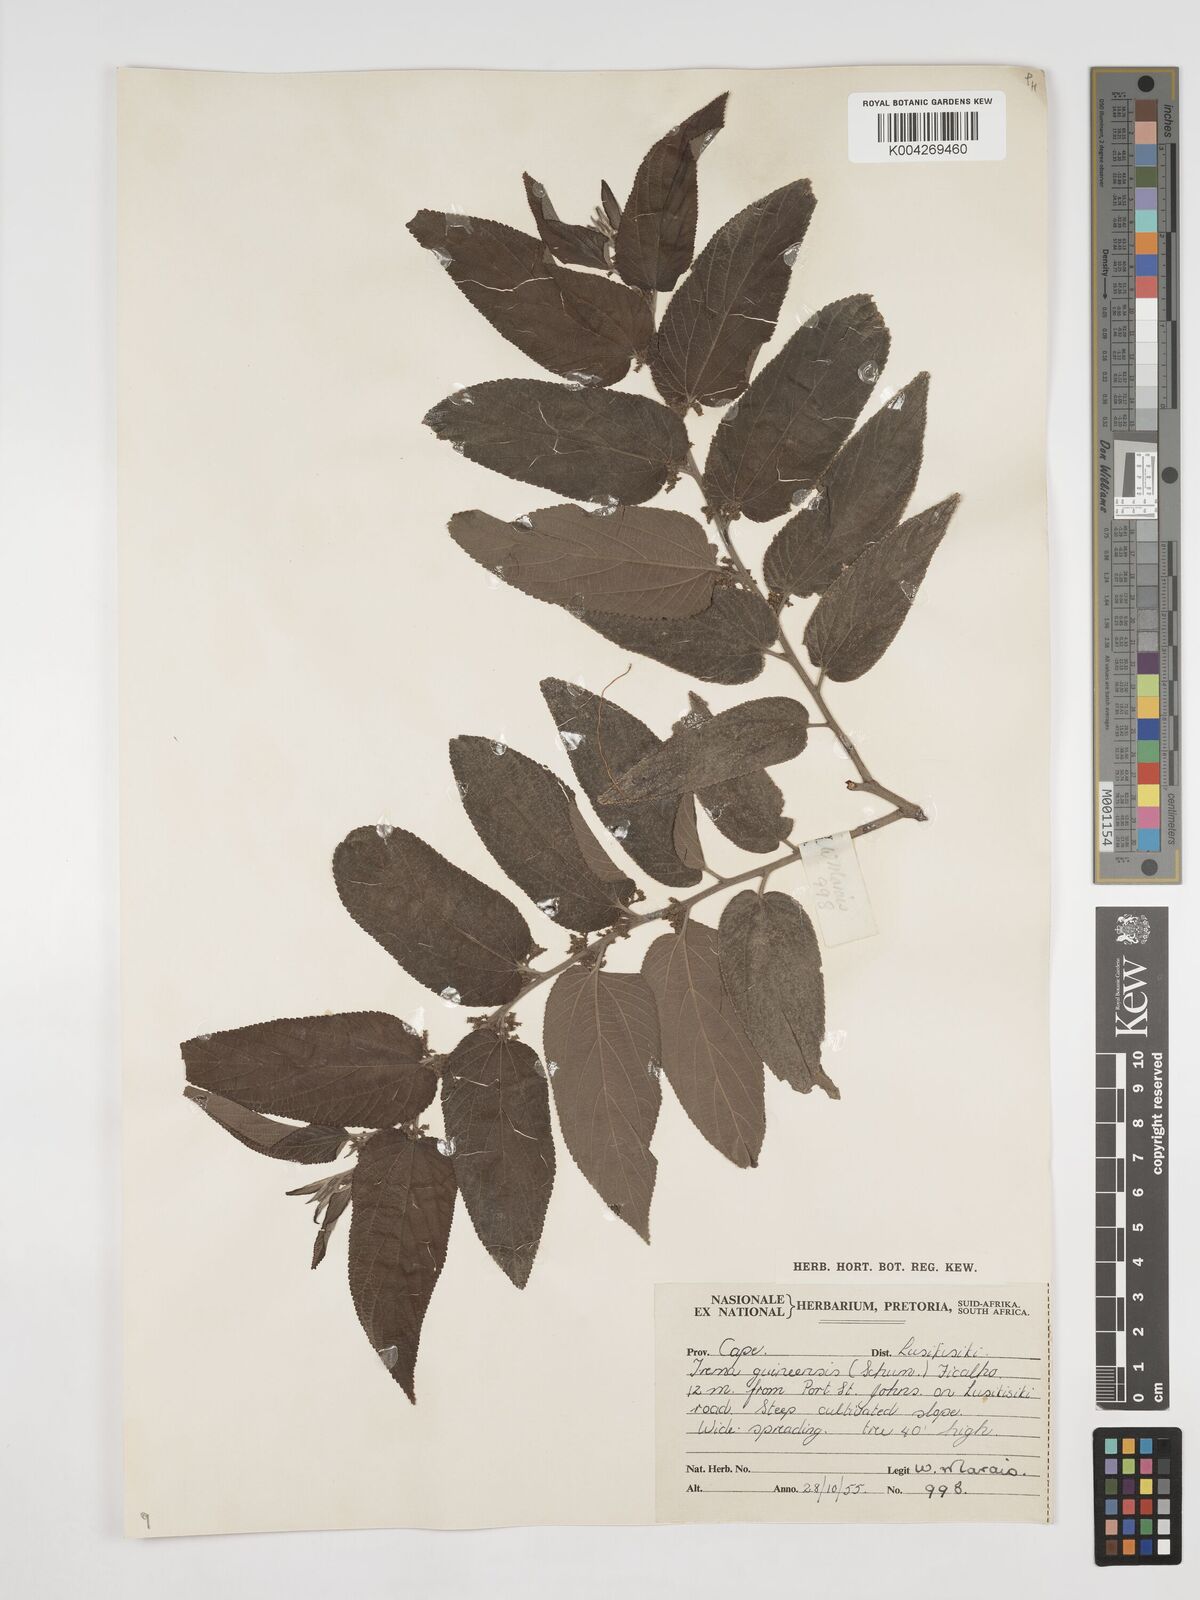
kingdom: Plantae
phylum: Tracheophyta
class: Magnoliopsida
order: Rosales
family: Cannabaceae
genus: Trema
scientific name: Trema orientale
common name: Indian charcoal tree
